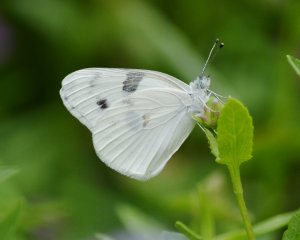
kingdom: Animalia
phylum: Arthropoda
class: Insecta
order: Lepidoptera
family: Pieridae
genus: Pontia
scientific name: Pontia protodice
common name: Checkered White
